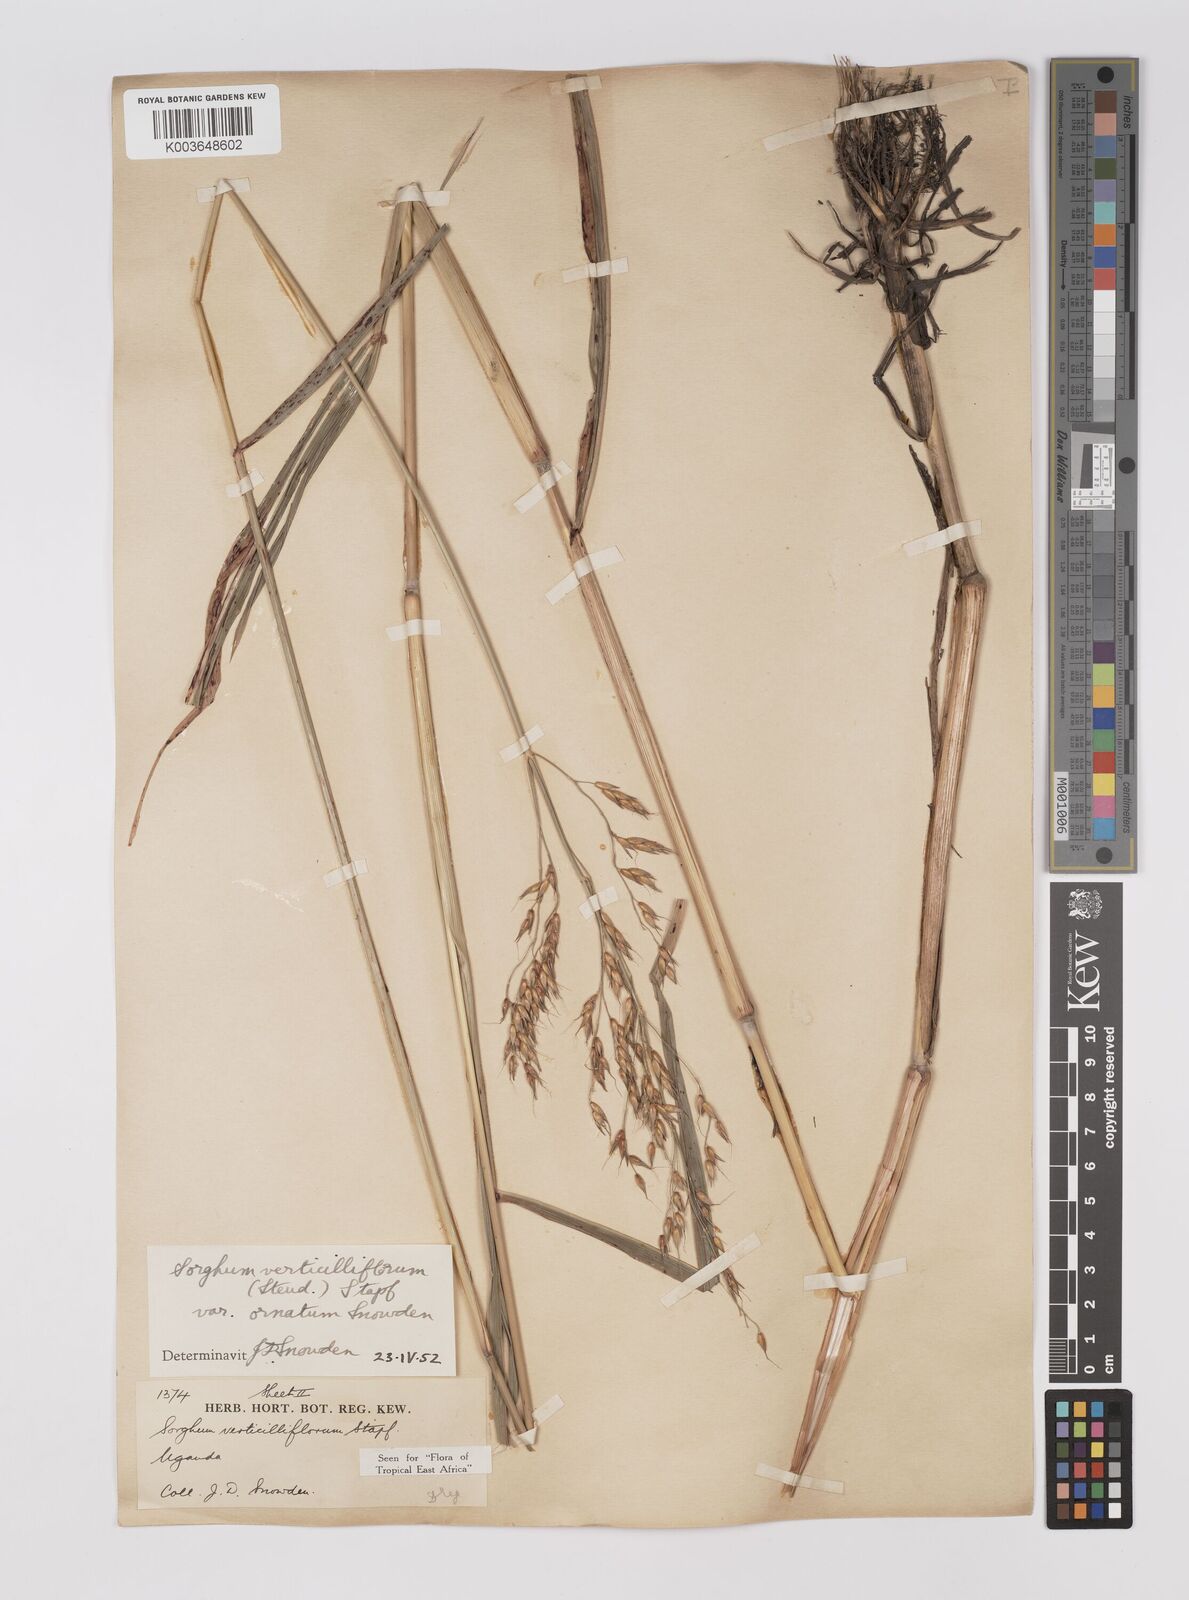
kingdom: Plantae
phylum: Tracheophyta
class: Liliopsida
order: Poales
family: Poaceae
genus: Sorghum
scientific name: Sorghum arundinaceum
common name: Sorghum
